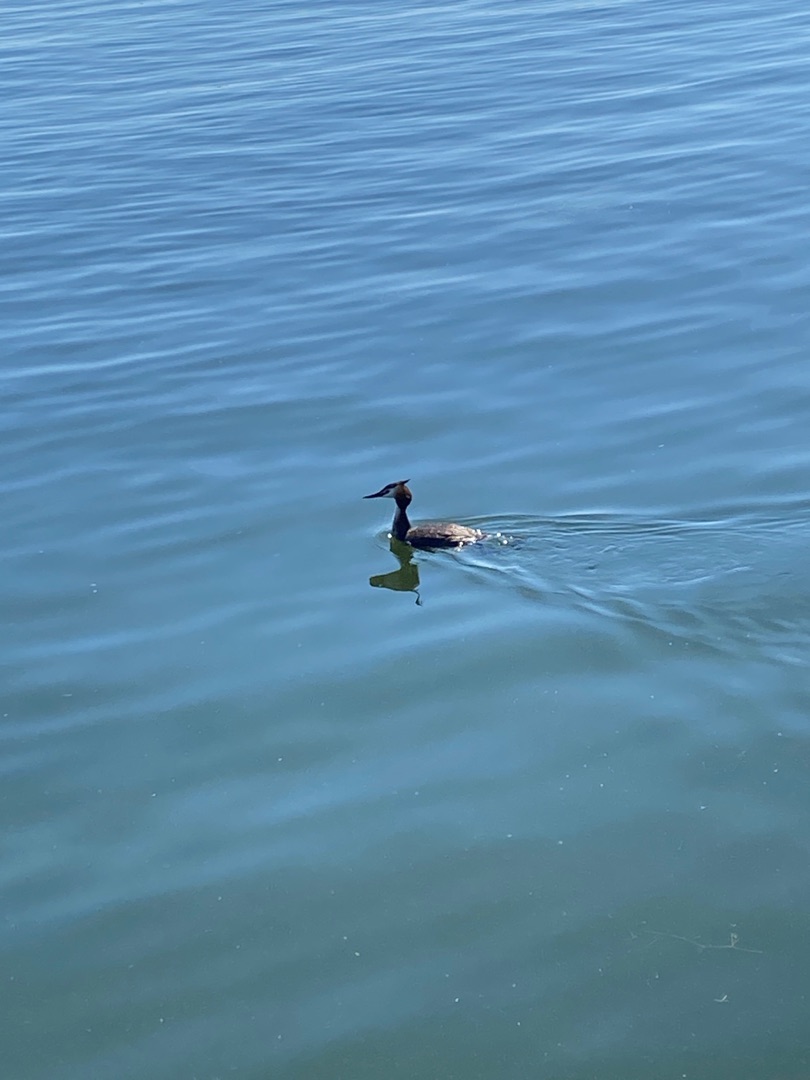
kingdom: Animalia
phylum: Chordata
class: Aves
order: Podicipediformes
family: Podicipedidae
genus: Podiceps
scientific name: Podiceps cristatus
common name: Toppet lappedykker
